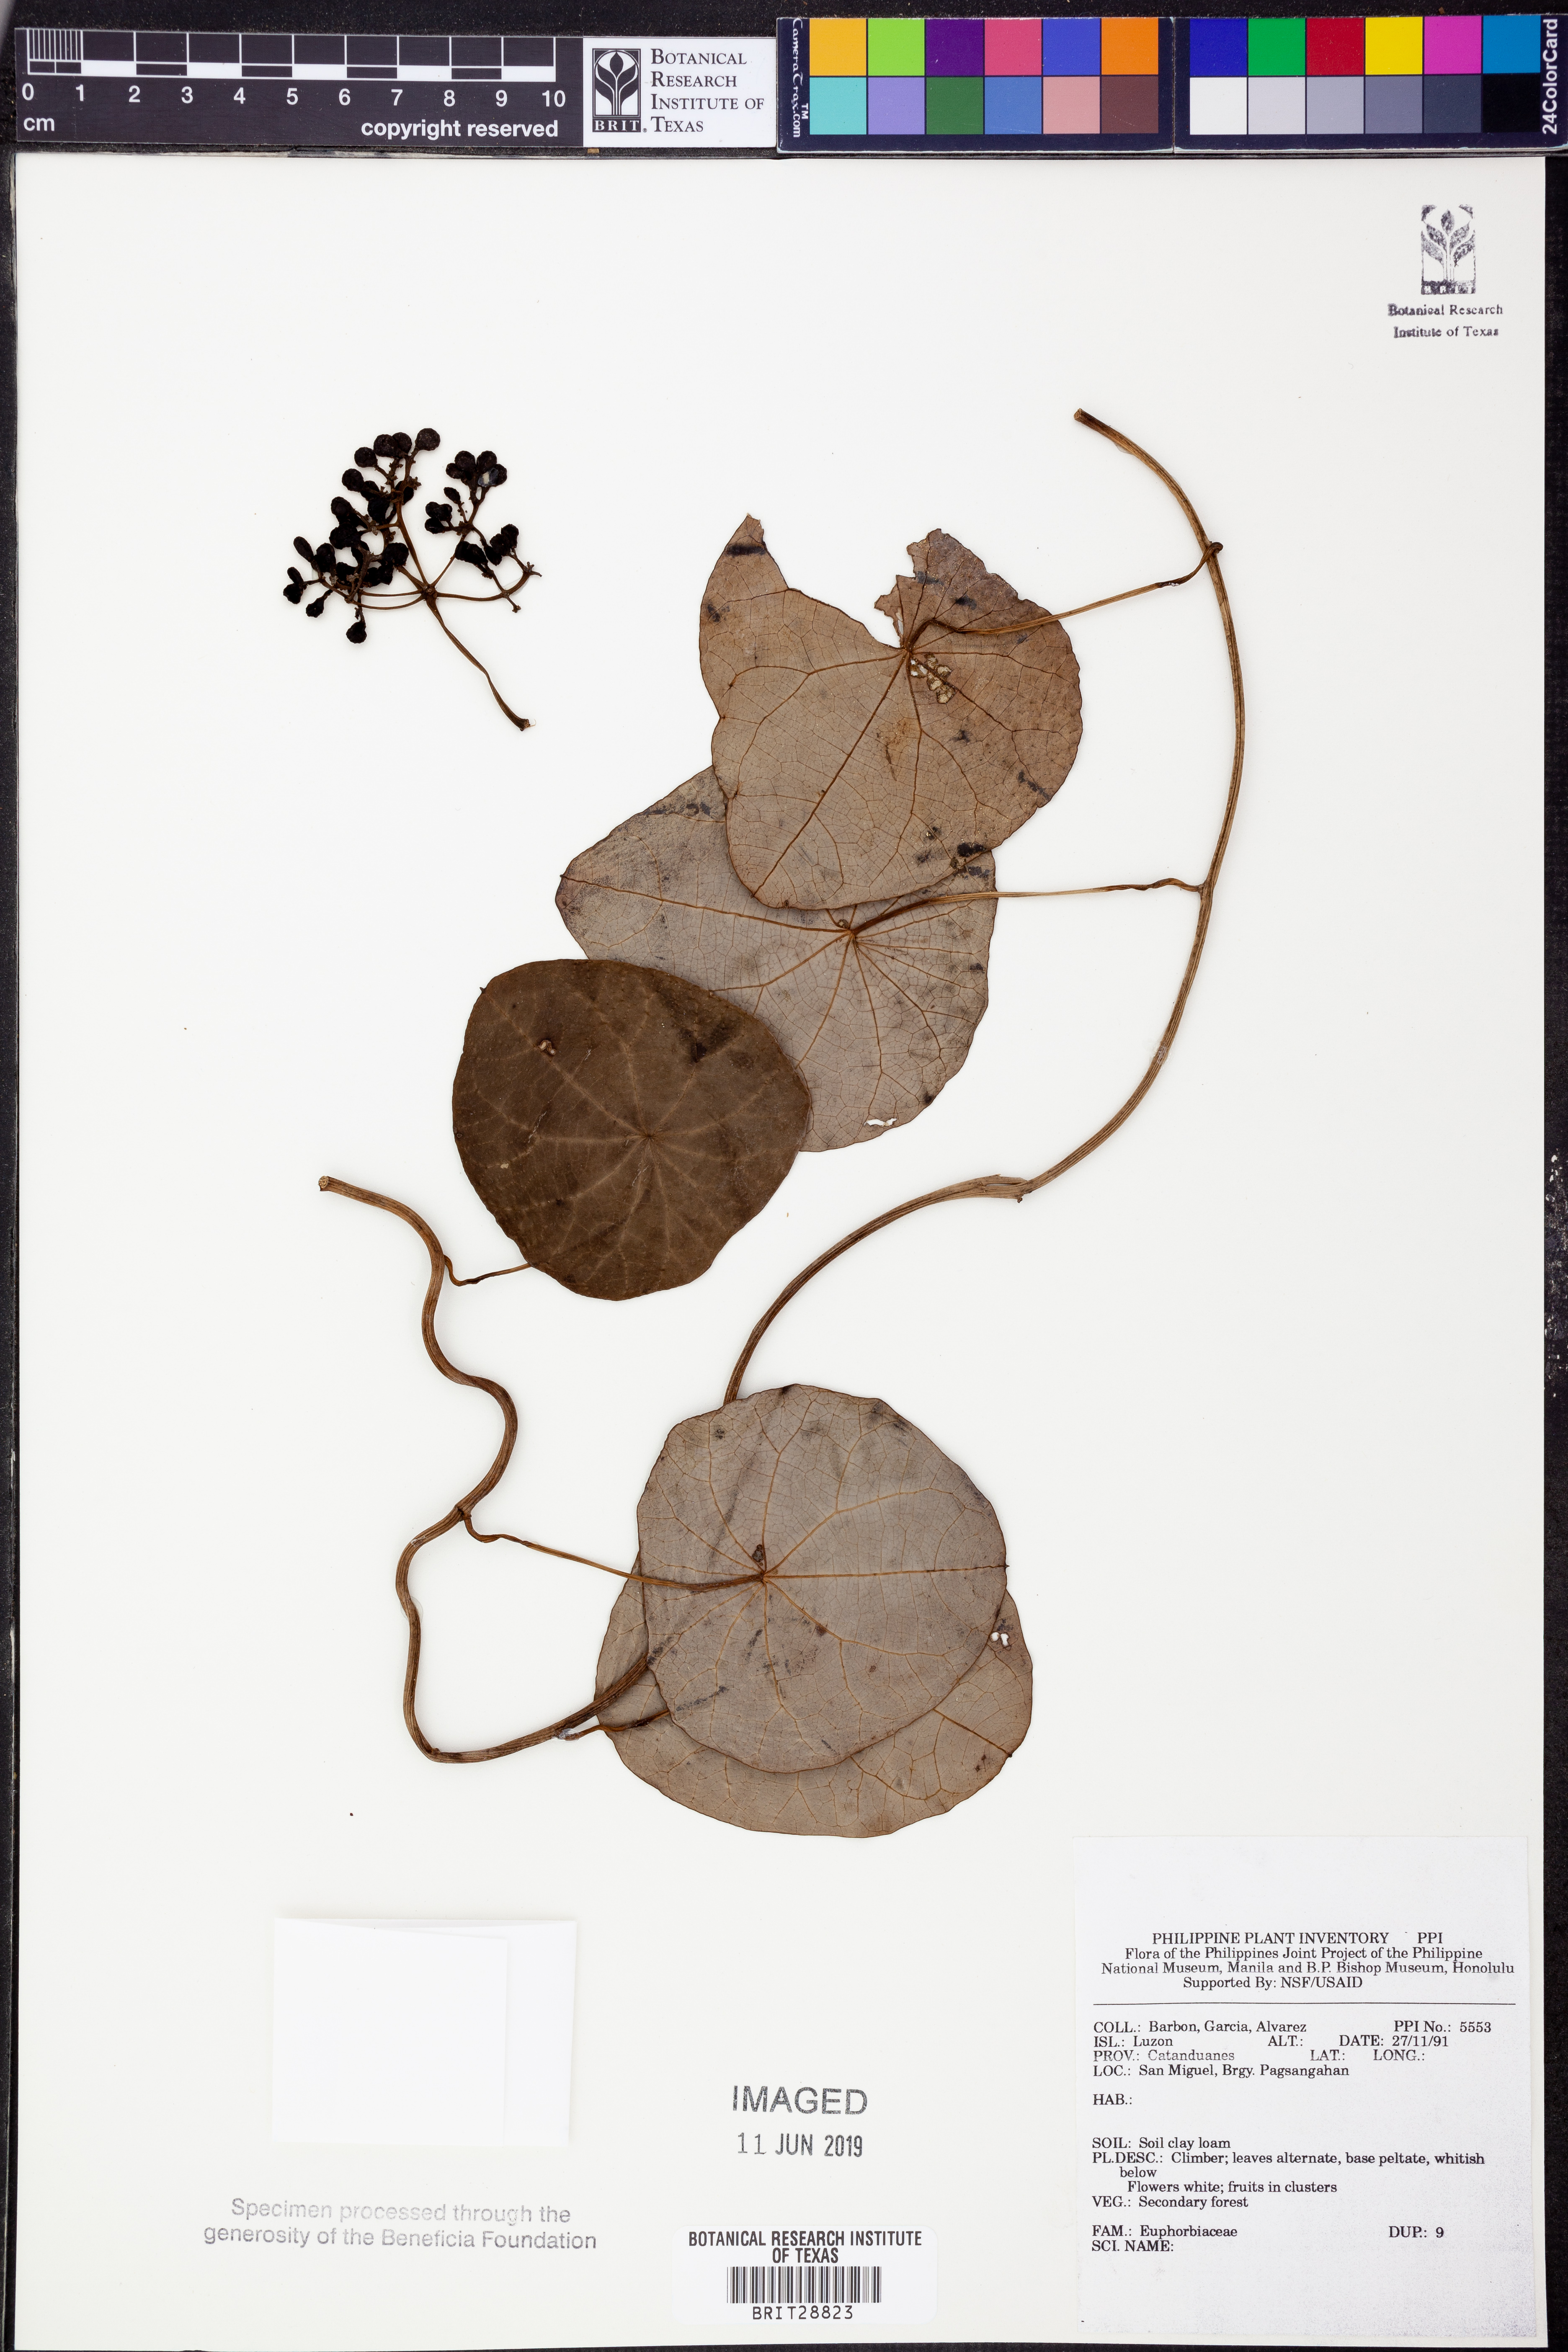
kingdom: Plantae
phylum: Tracheophyta
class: Magnoliopsida
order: Malpighiales
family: Euphorbiaceae
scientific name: Euphorbiaceae
